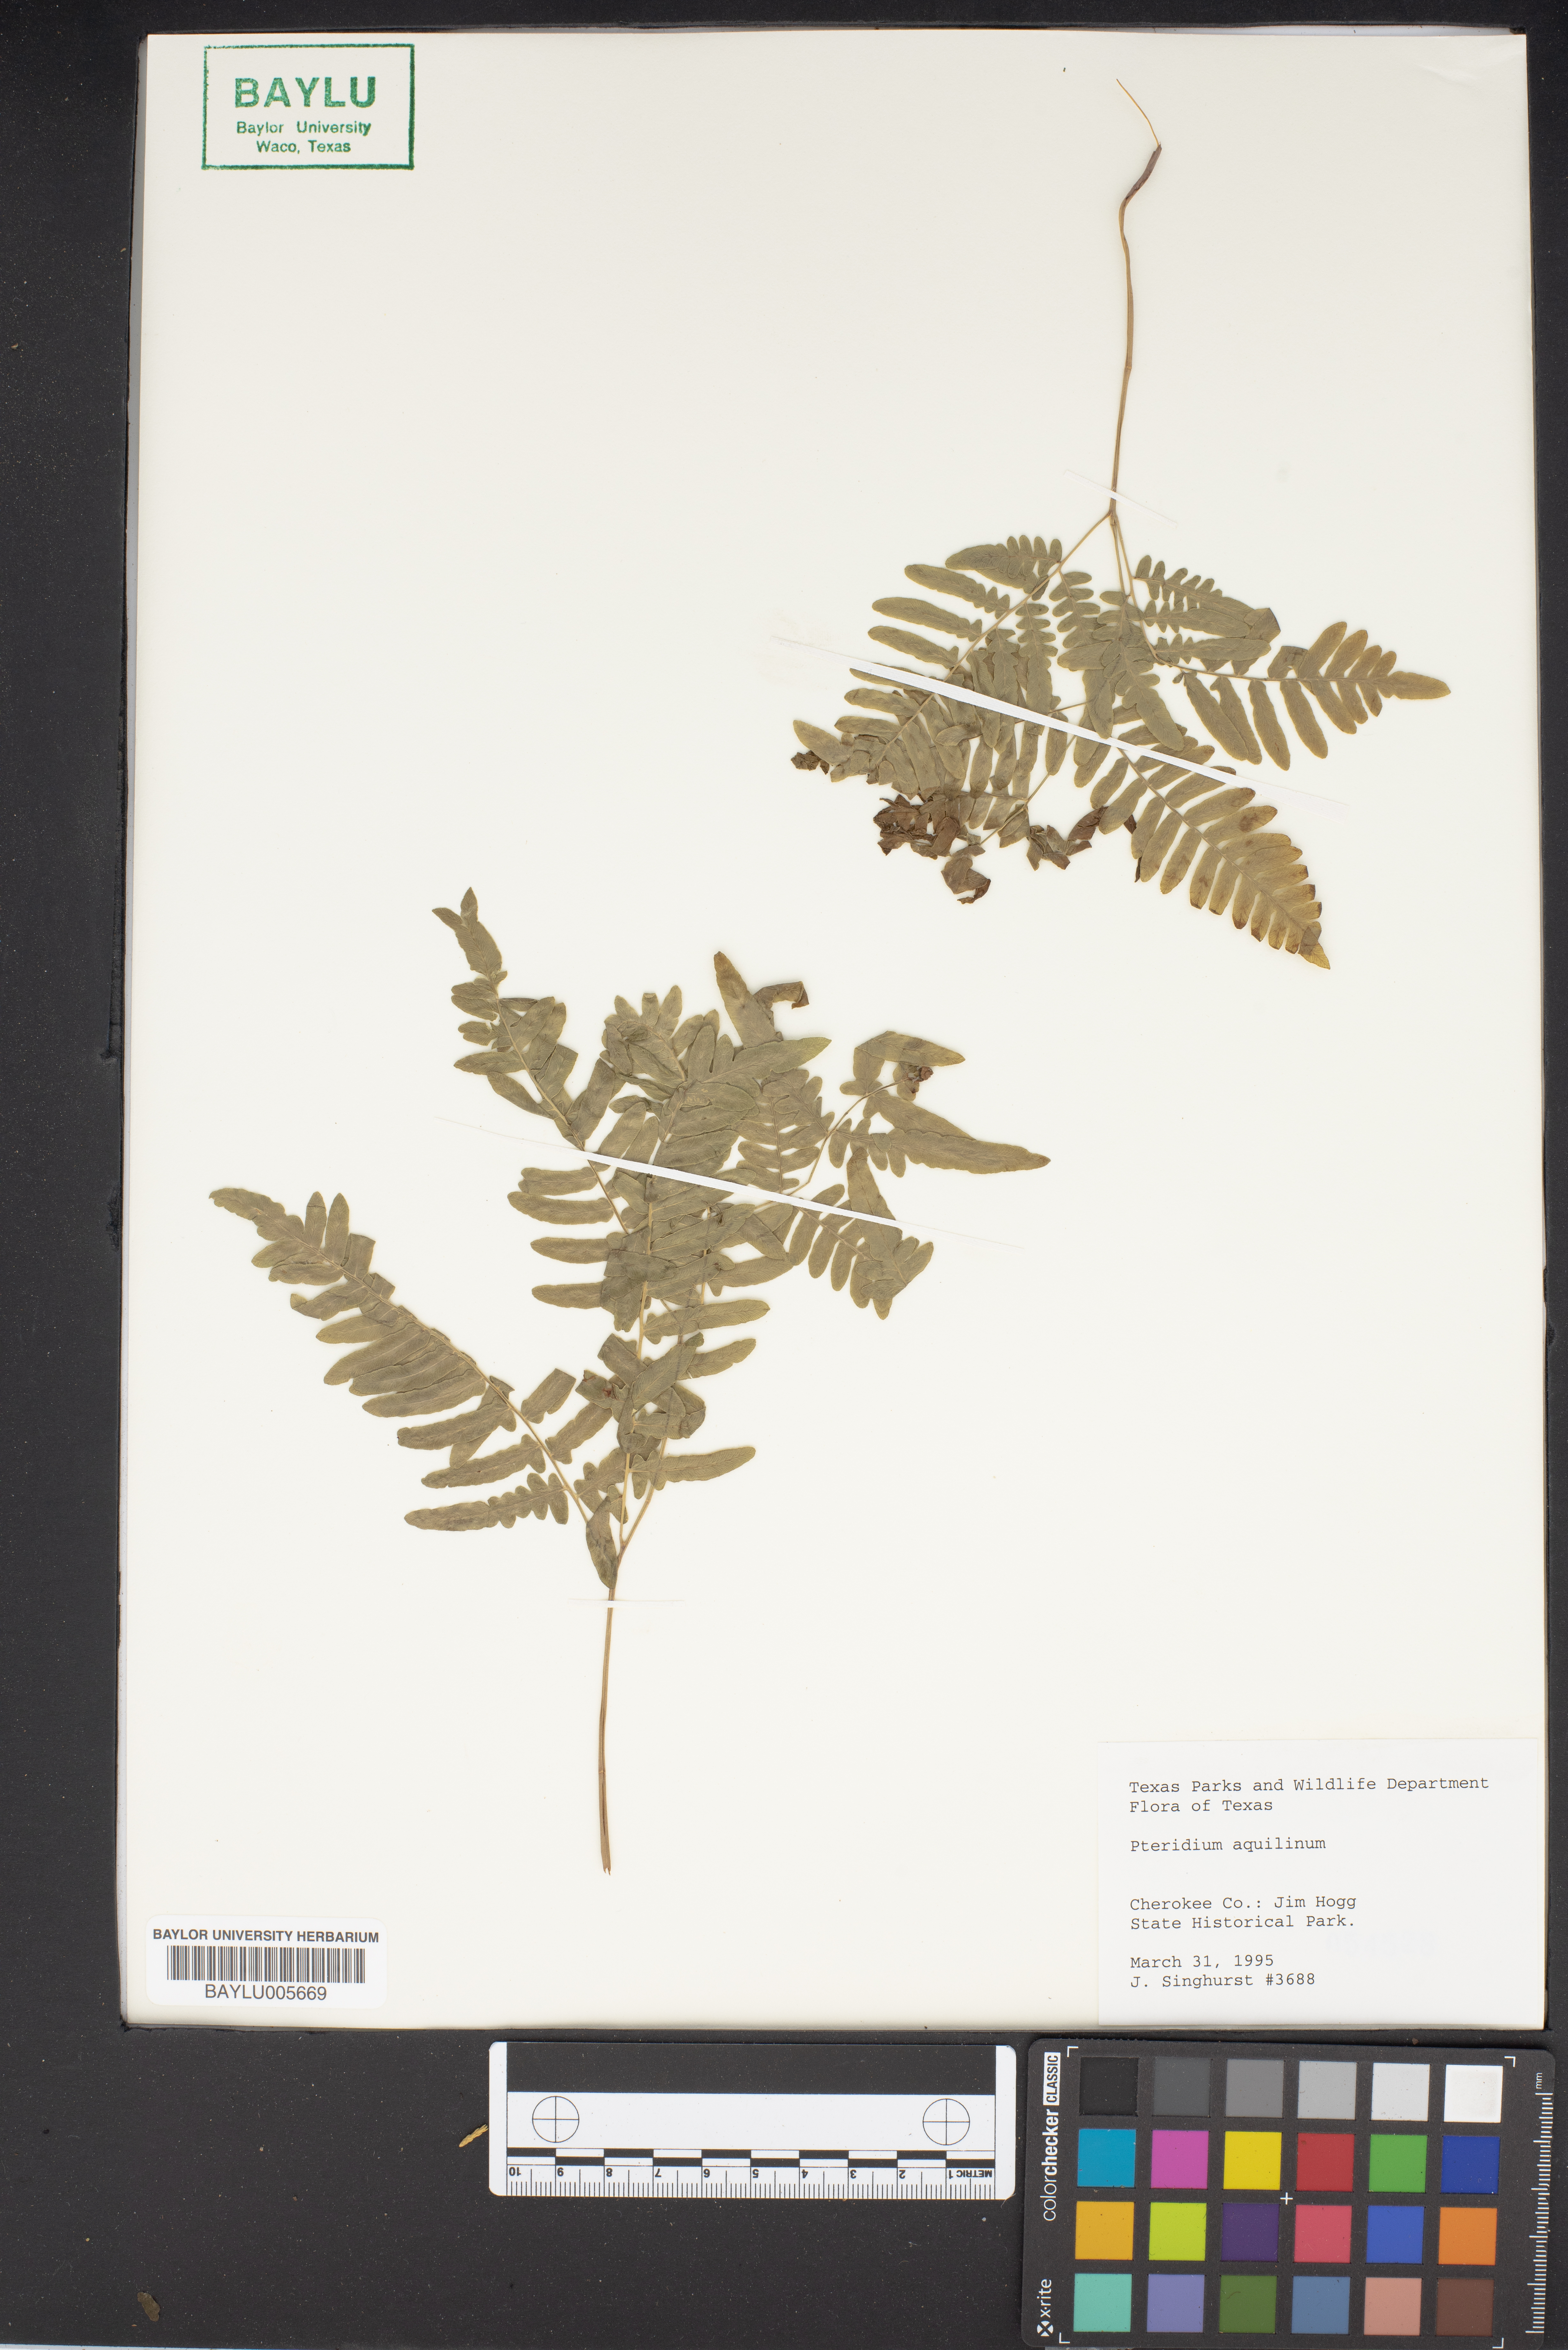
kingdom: Plantae
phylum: Tracheophyta
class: Polypodiopsida
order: Polypodiales
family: Dennstaedtiaceae
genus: Pteridium
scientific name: Pteridium aquilinum
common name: Bracken
